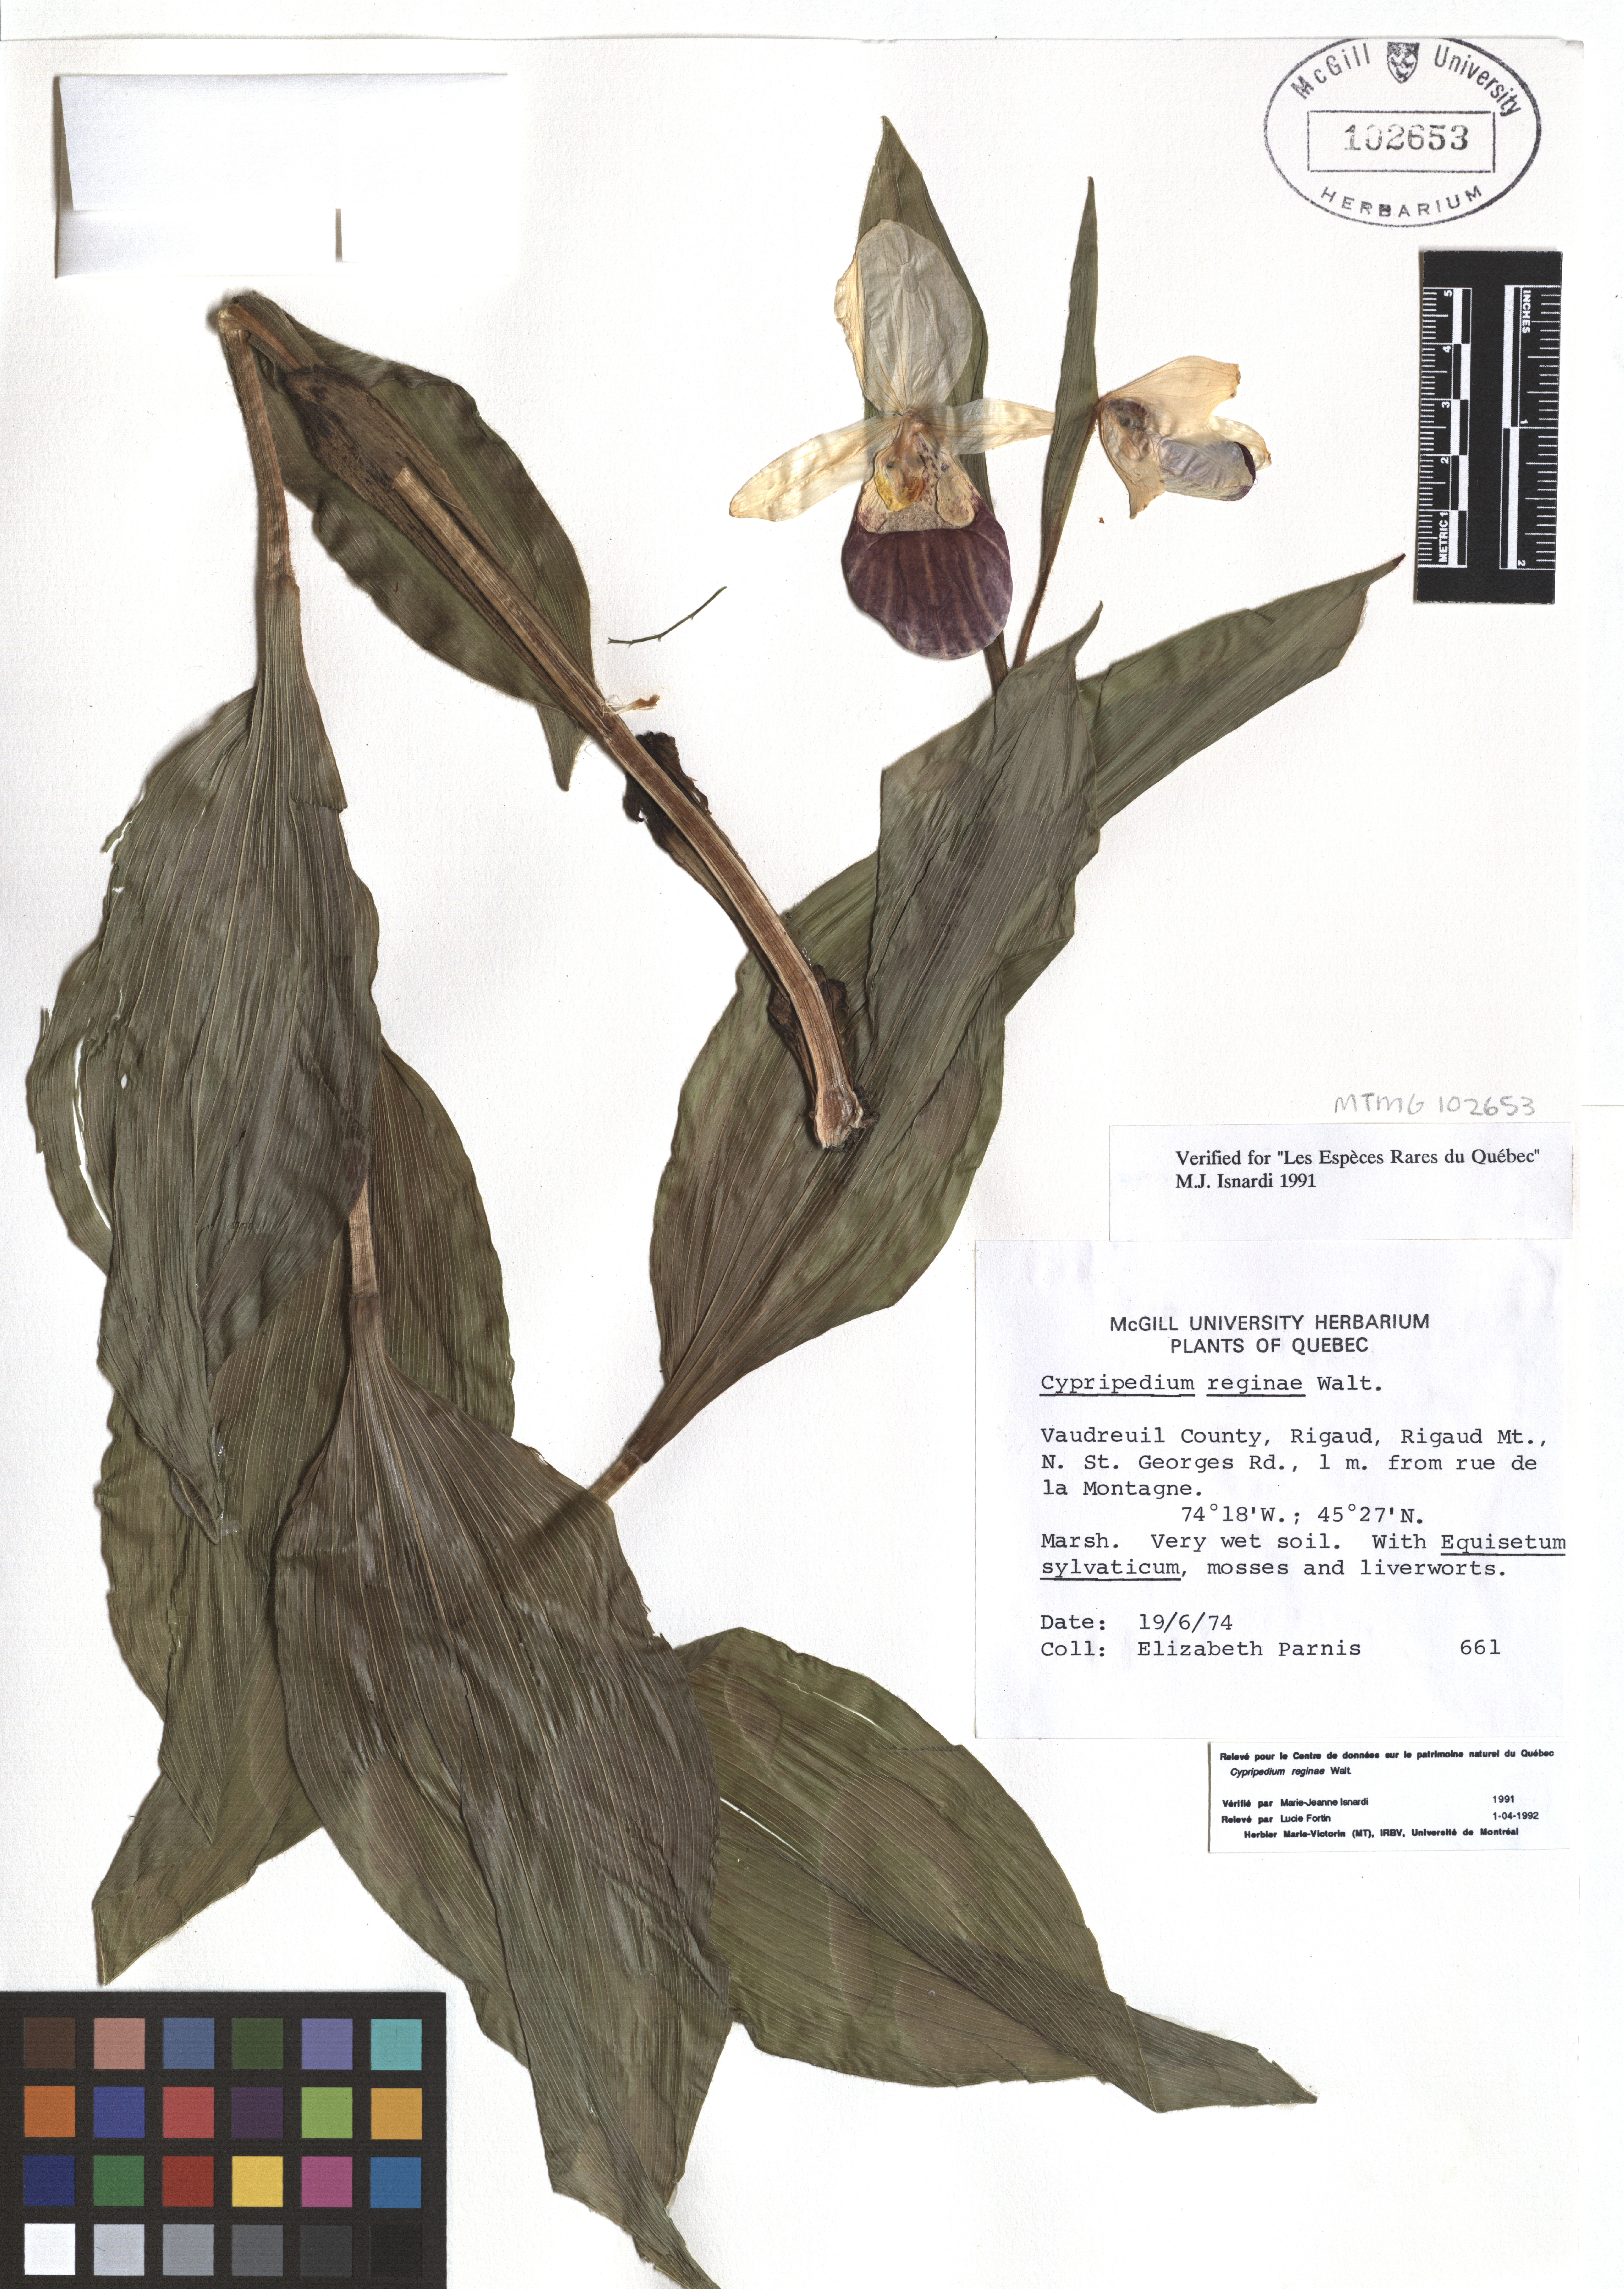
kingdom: Plantae
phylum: Tracheophyta
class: Liliopsida
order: Asparagales
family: Orchidaceae
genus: Cypripedium
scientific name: Cypripedium reginae
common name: Queen lady's-slipper
